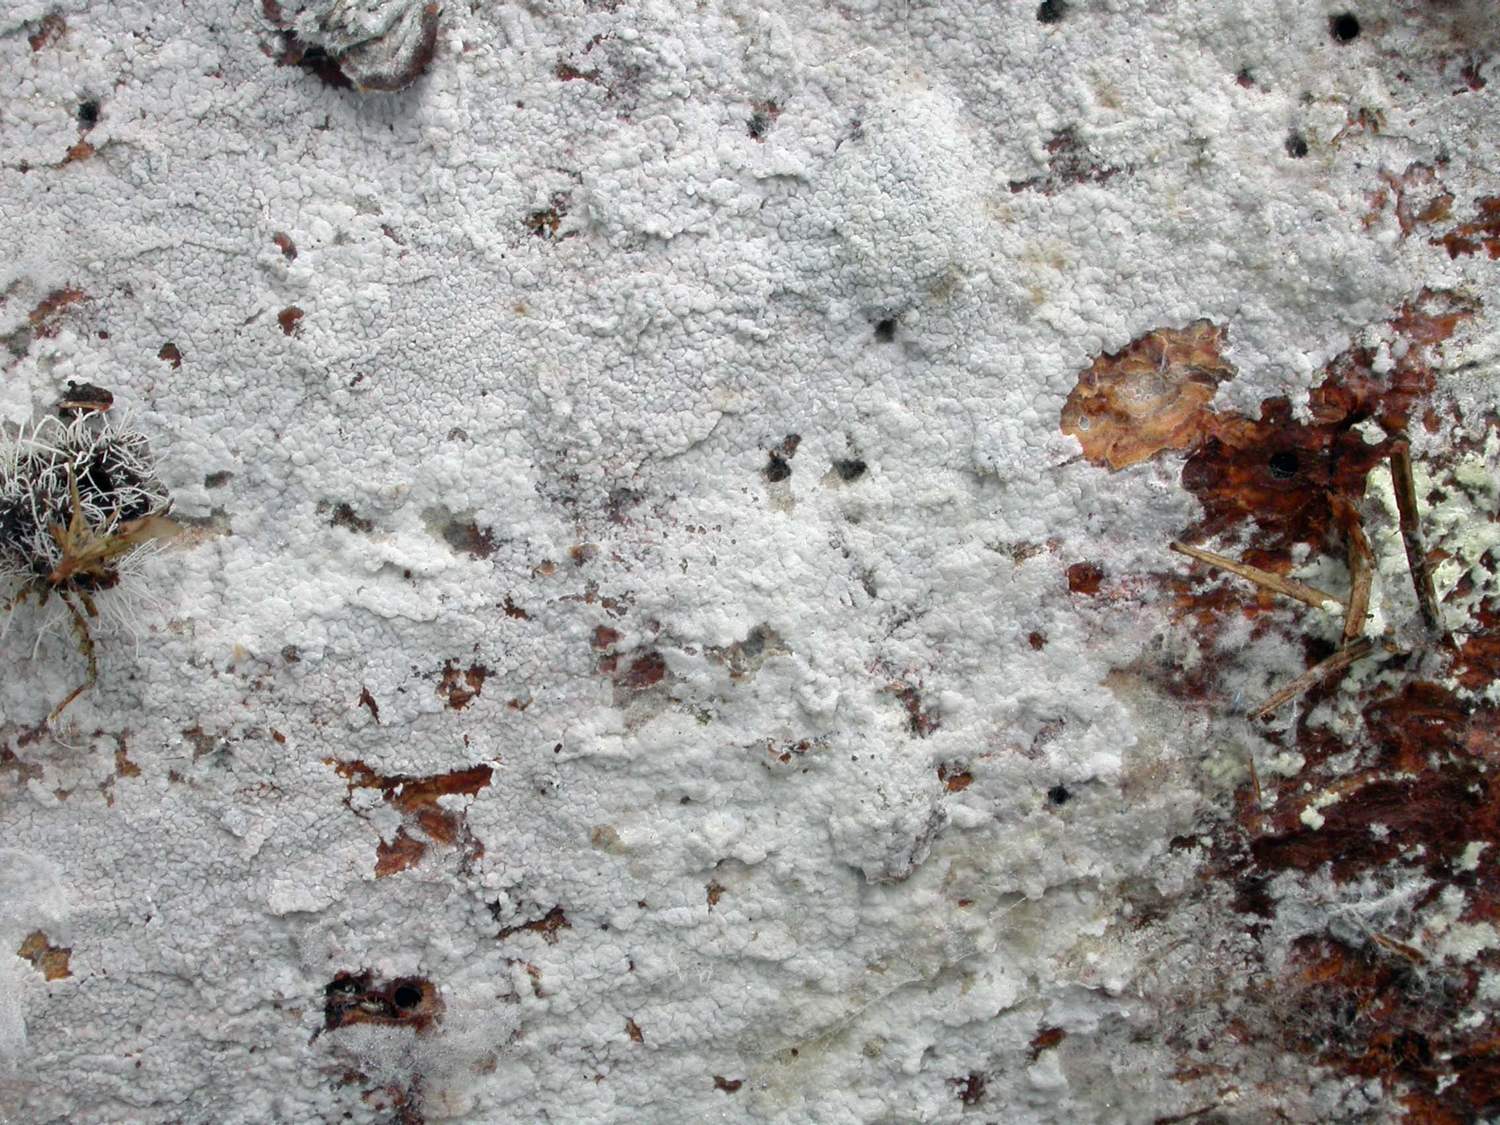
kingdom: Fungi
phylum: Basidiomycota
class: Agaricomycetes
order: Atheliales
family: Atheliaceae
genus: Athelia
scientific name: Athelia epiphylla
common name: almindelig barkhinde
